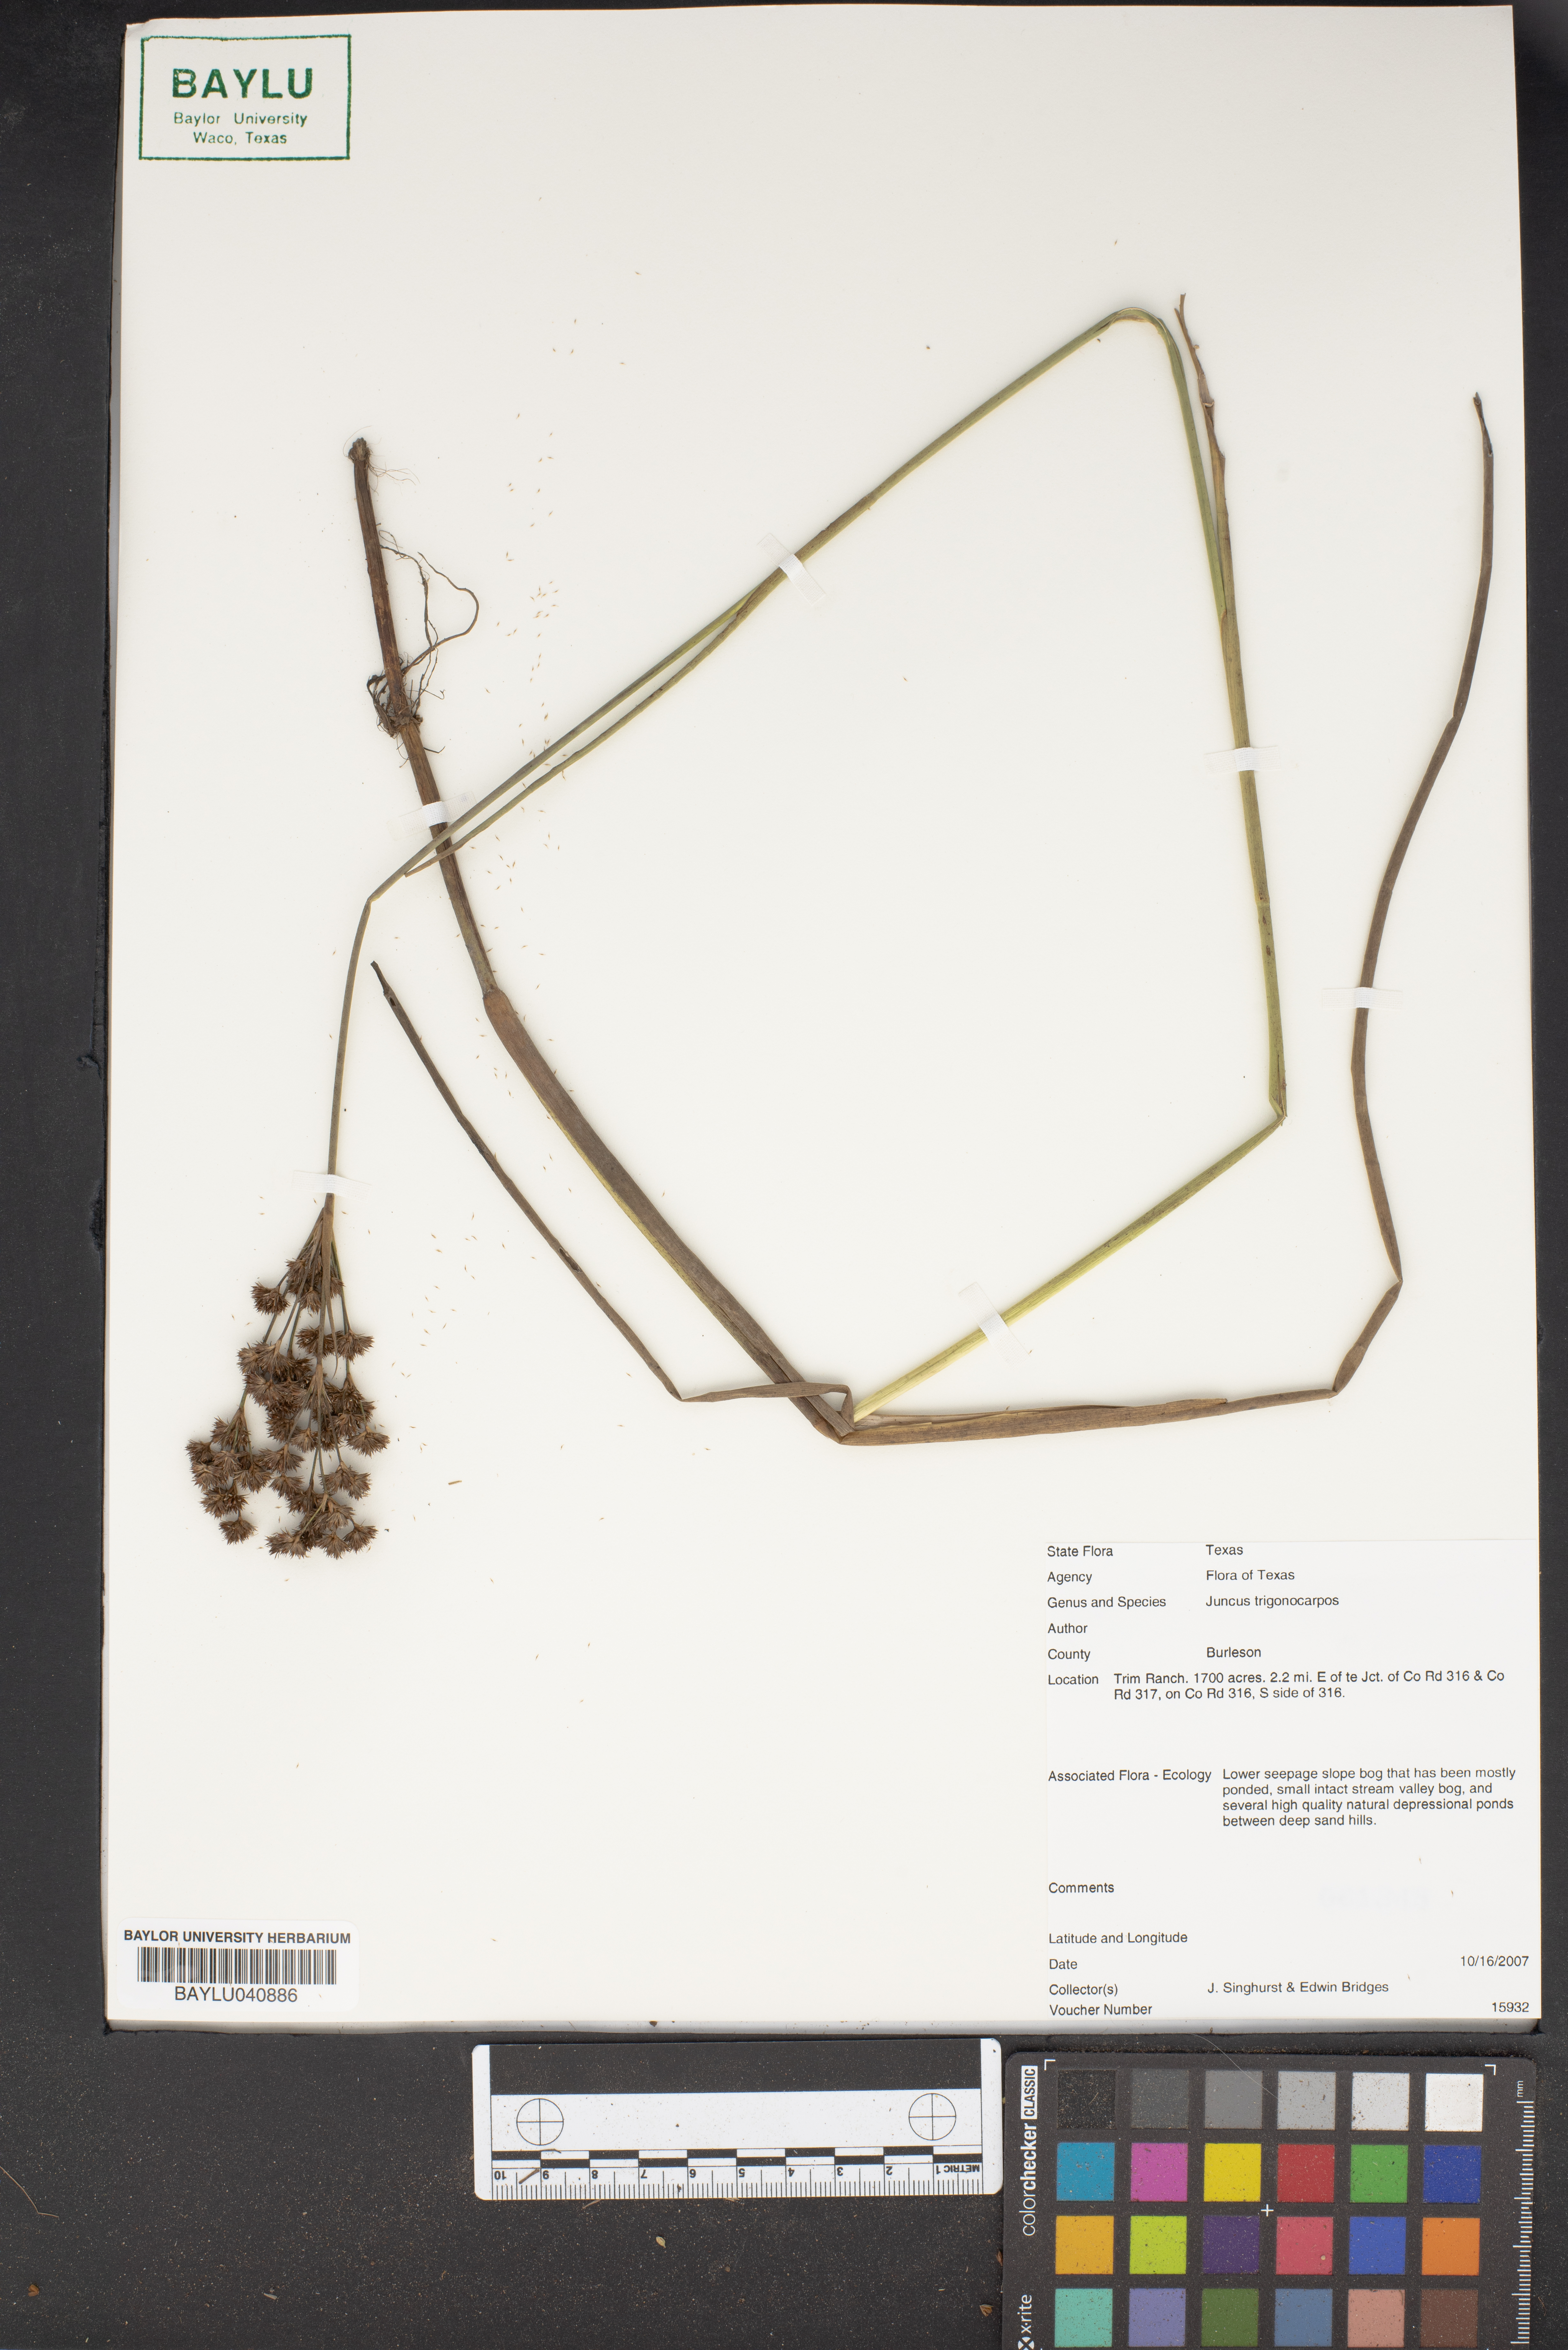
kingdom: Plantae
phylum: Tracheophyta
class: Liliopsida
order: Poales
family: Juncaceae
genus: Juncus
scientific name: Juncus trigonocarpus
